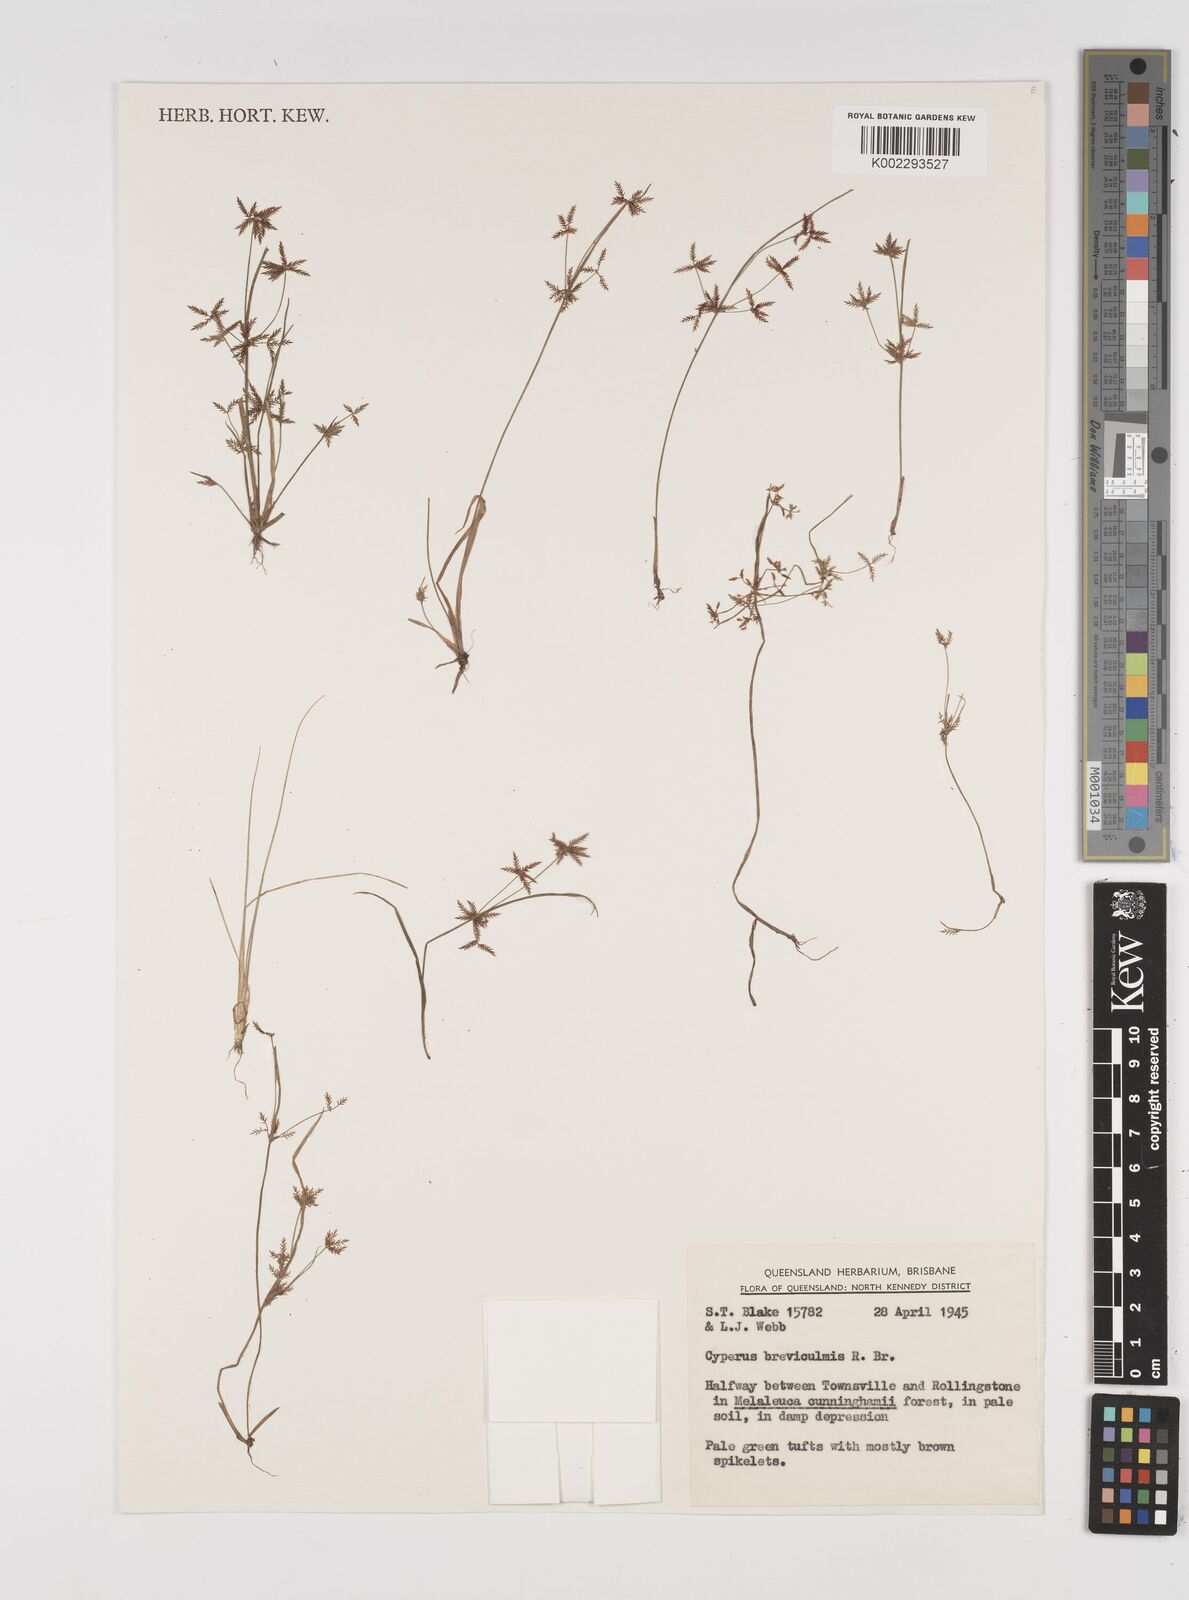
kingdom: Plantae
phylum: Tracheophyta
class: Liliopsida
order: Poales
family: Cyperaceae
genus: Cyperus
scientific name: Cyperus breviculmis
